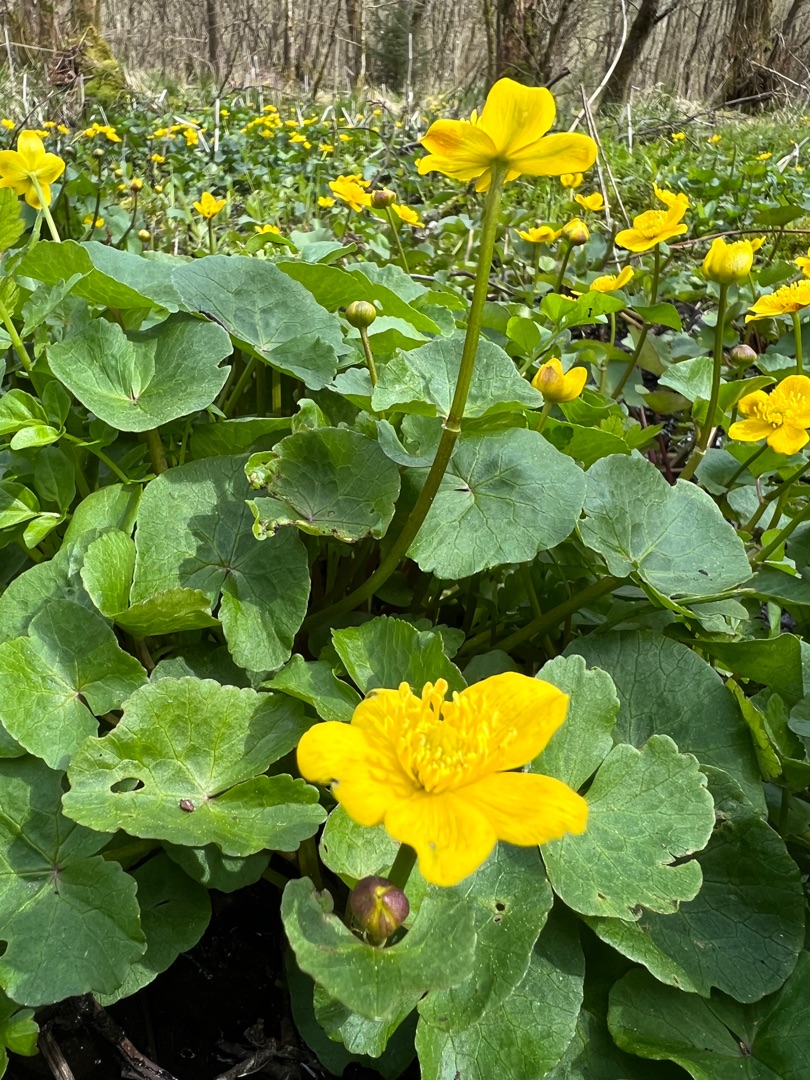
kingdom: Plantae
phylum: Tracheophyta
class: Magnoliopsida
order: Ranunculales
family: Ranunculaceae
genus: Caltha
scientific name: Caltha palustris
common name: Eng-kabbeleje
